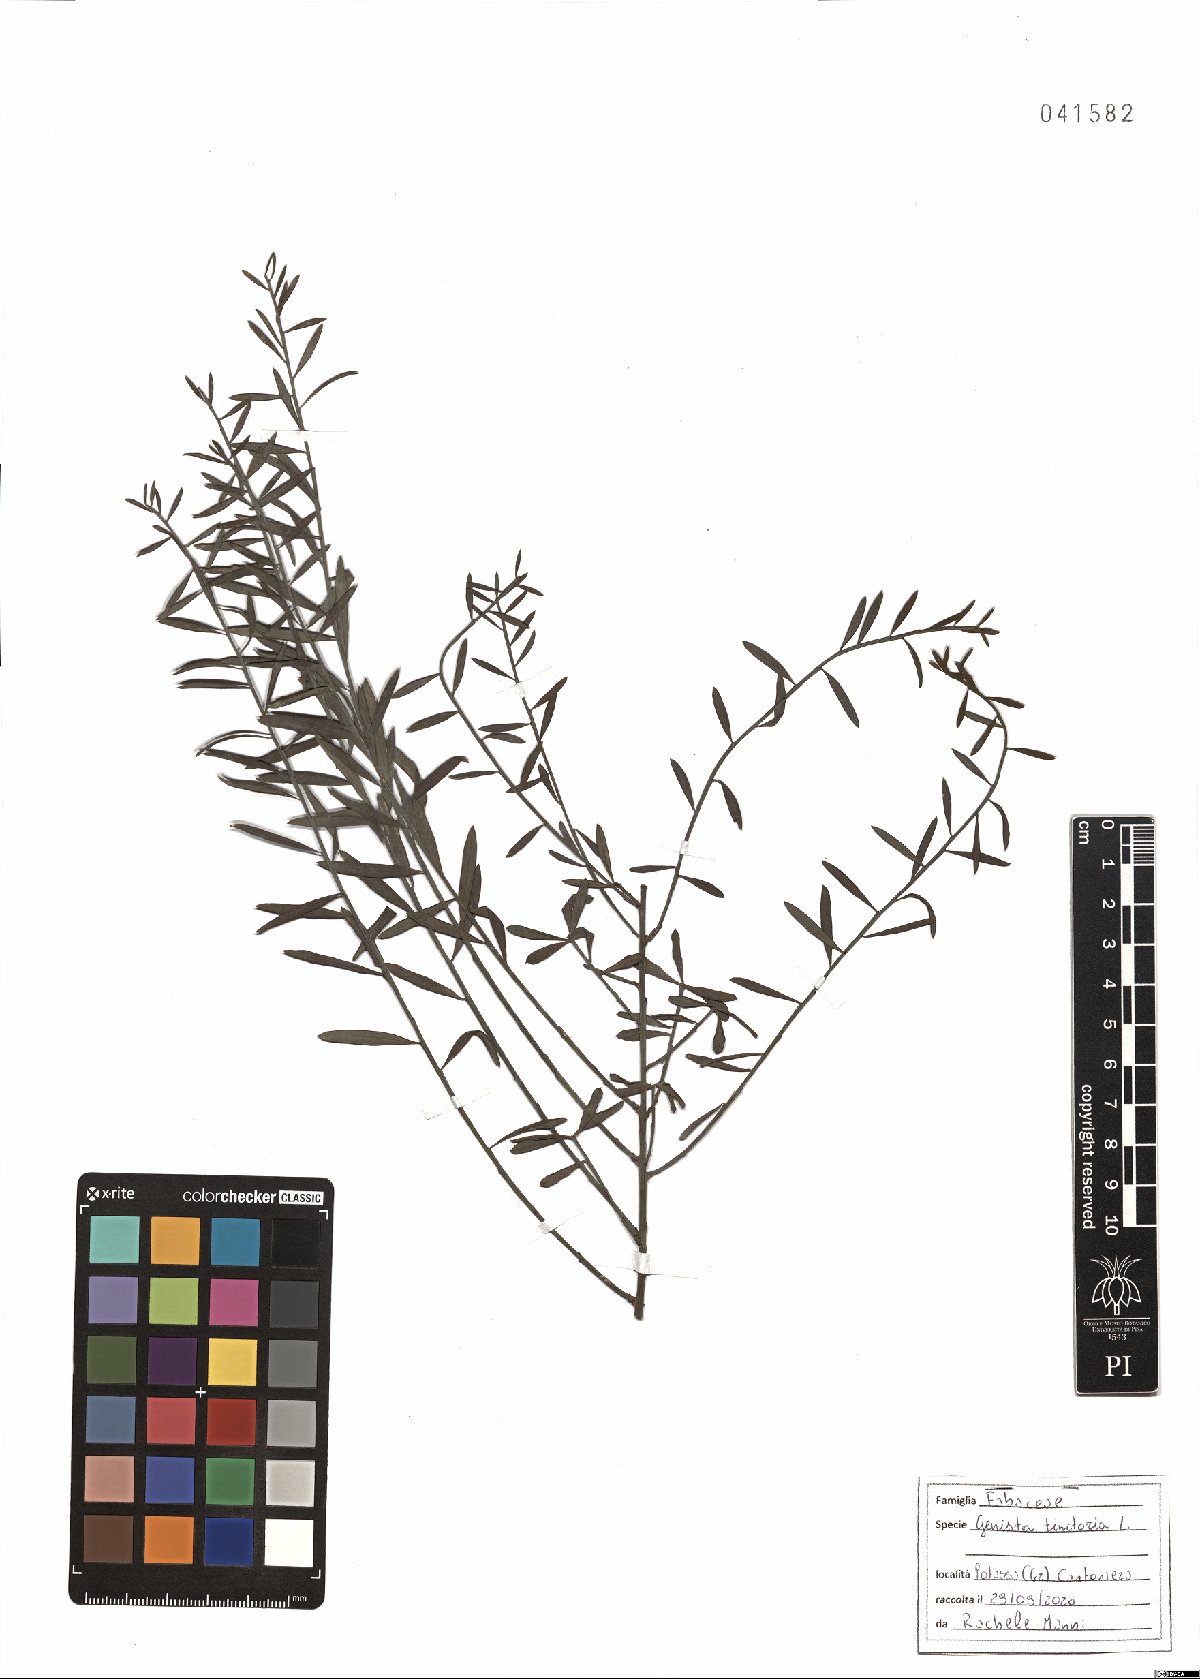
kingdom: Plantae
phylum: Tracheophyta
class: Magnoliopsida
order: Fabales
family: Fabaceae
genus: Genista
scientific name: Genista tinctoria
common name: Dyer's greenweed
